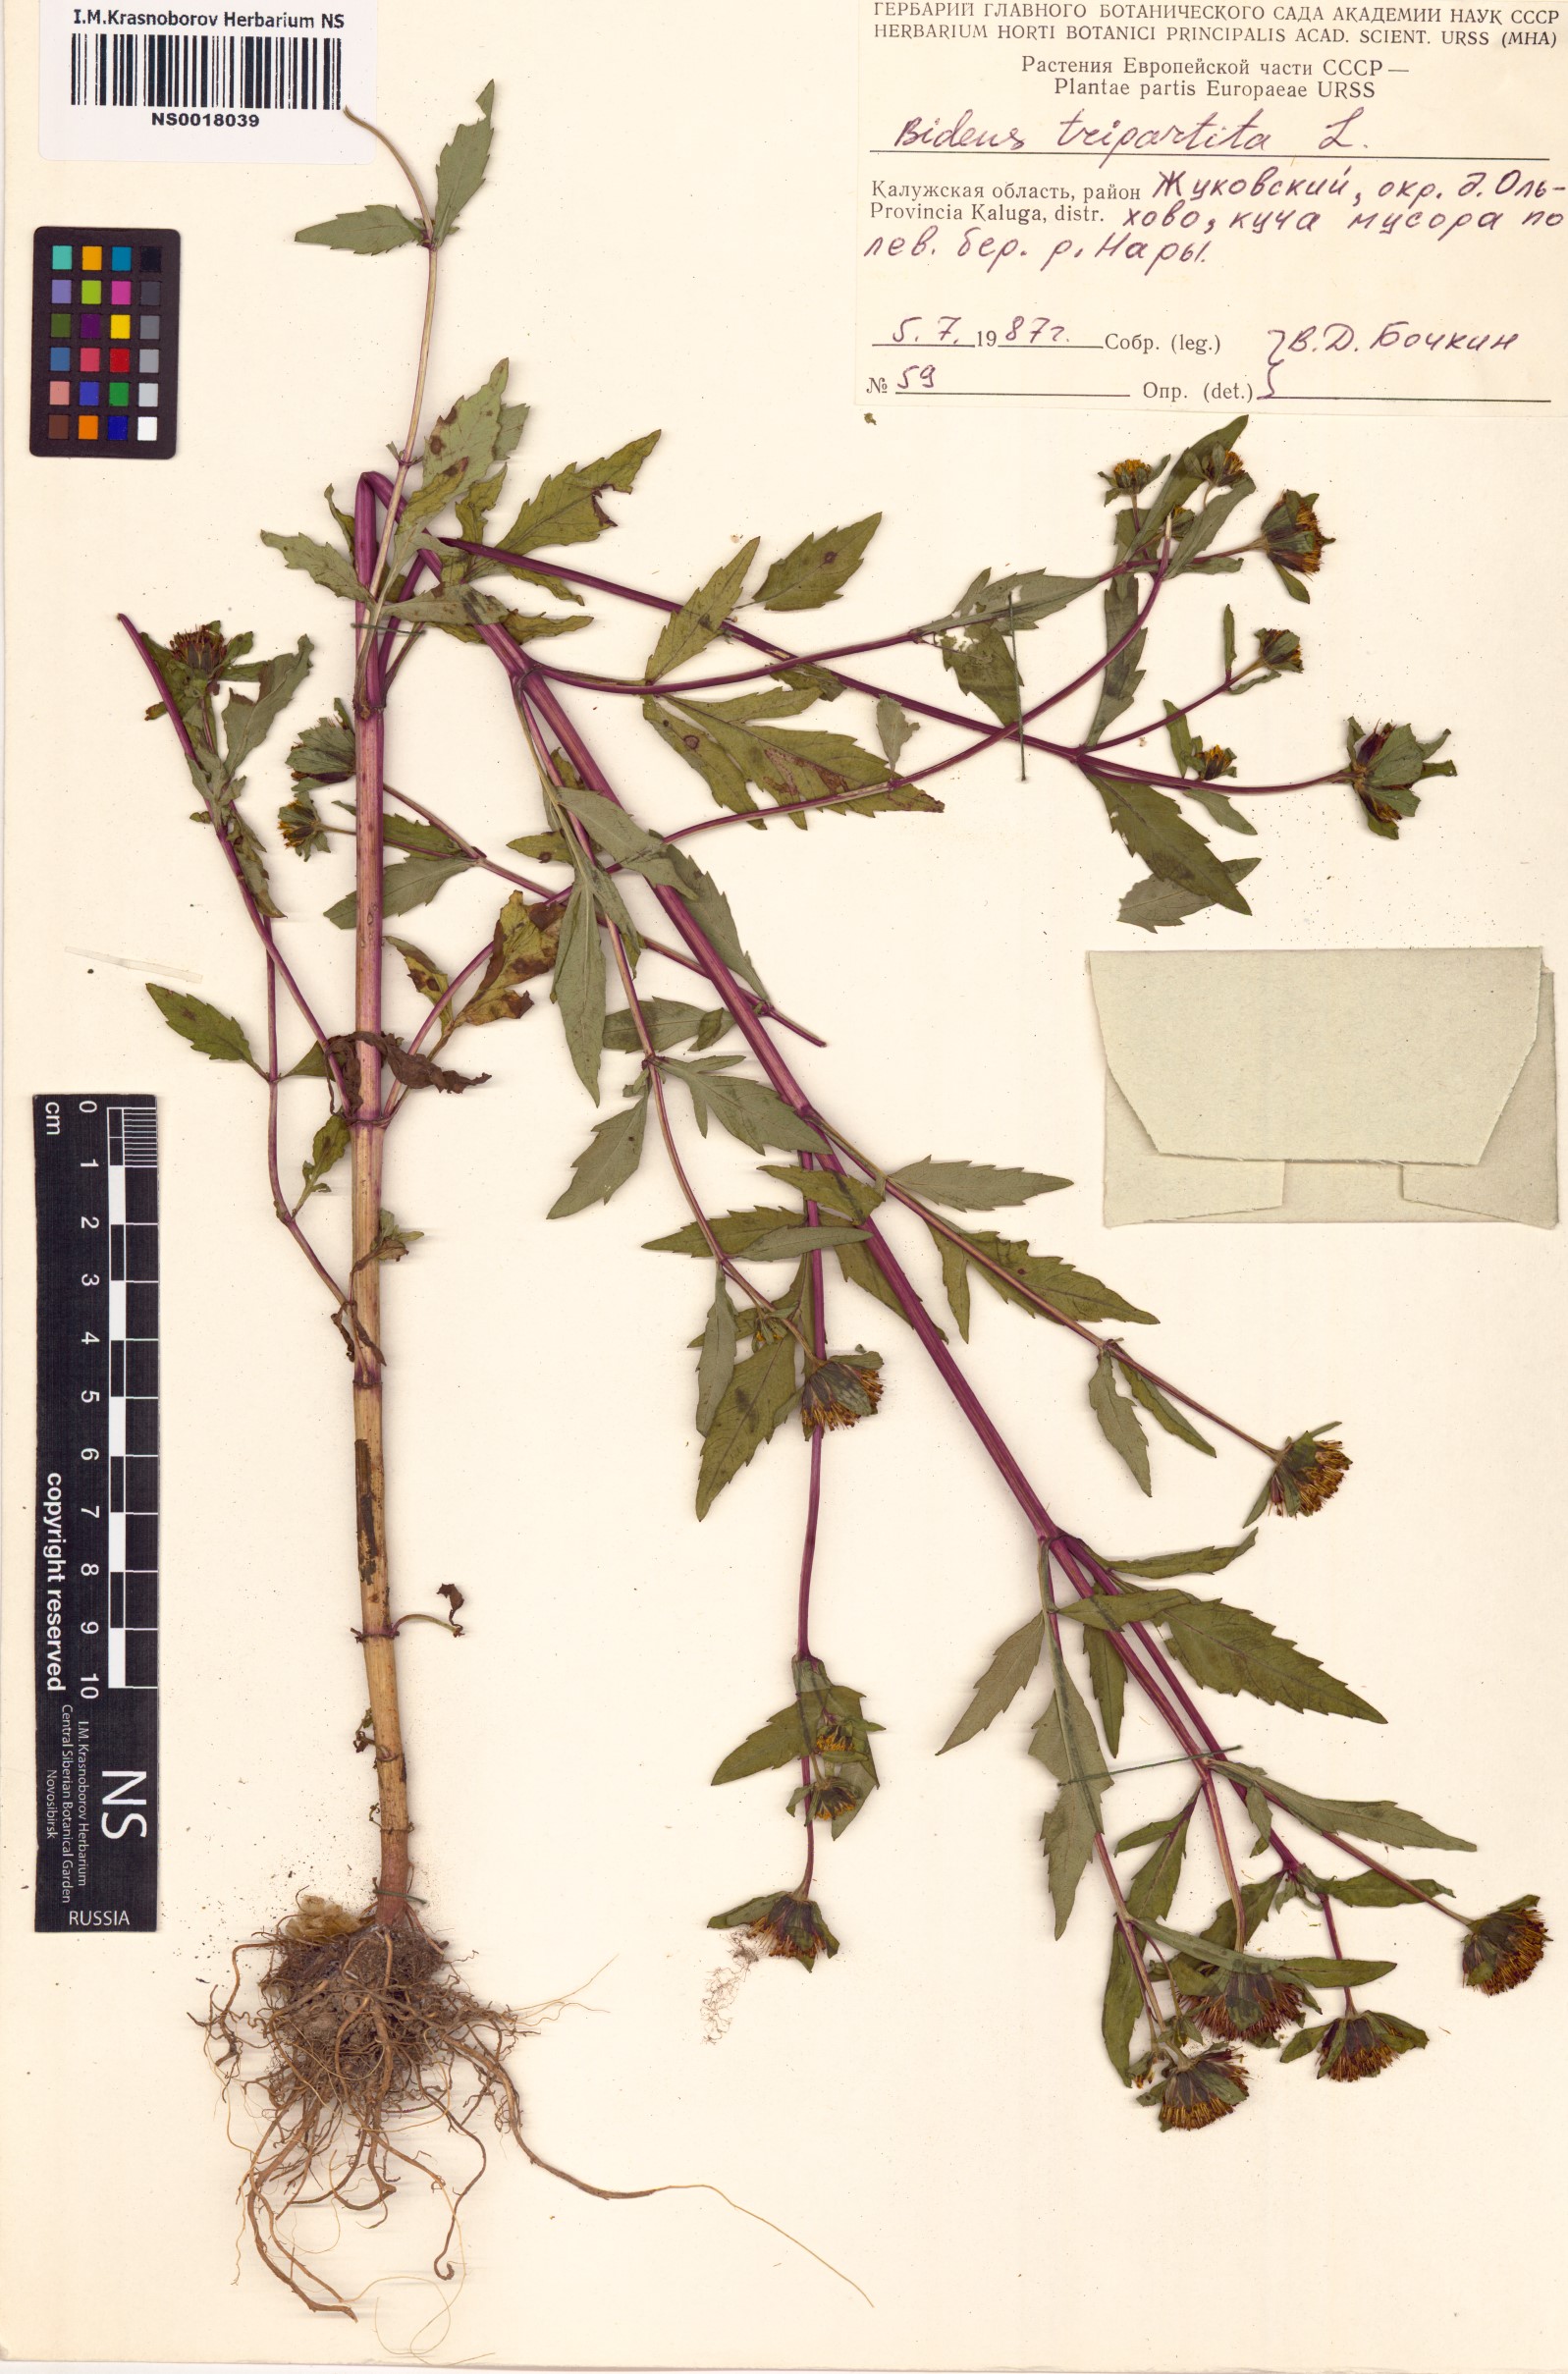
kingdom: Plantae
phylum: Tracheophyta
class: Magnoliopsida
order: Asterales
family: Asteraceae
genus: Bidens
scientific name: Bidens tripartita
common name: Trifid bur-marigold
